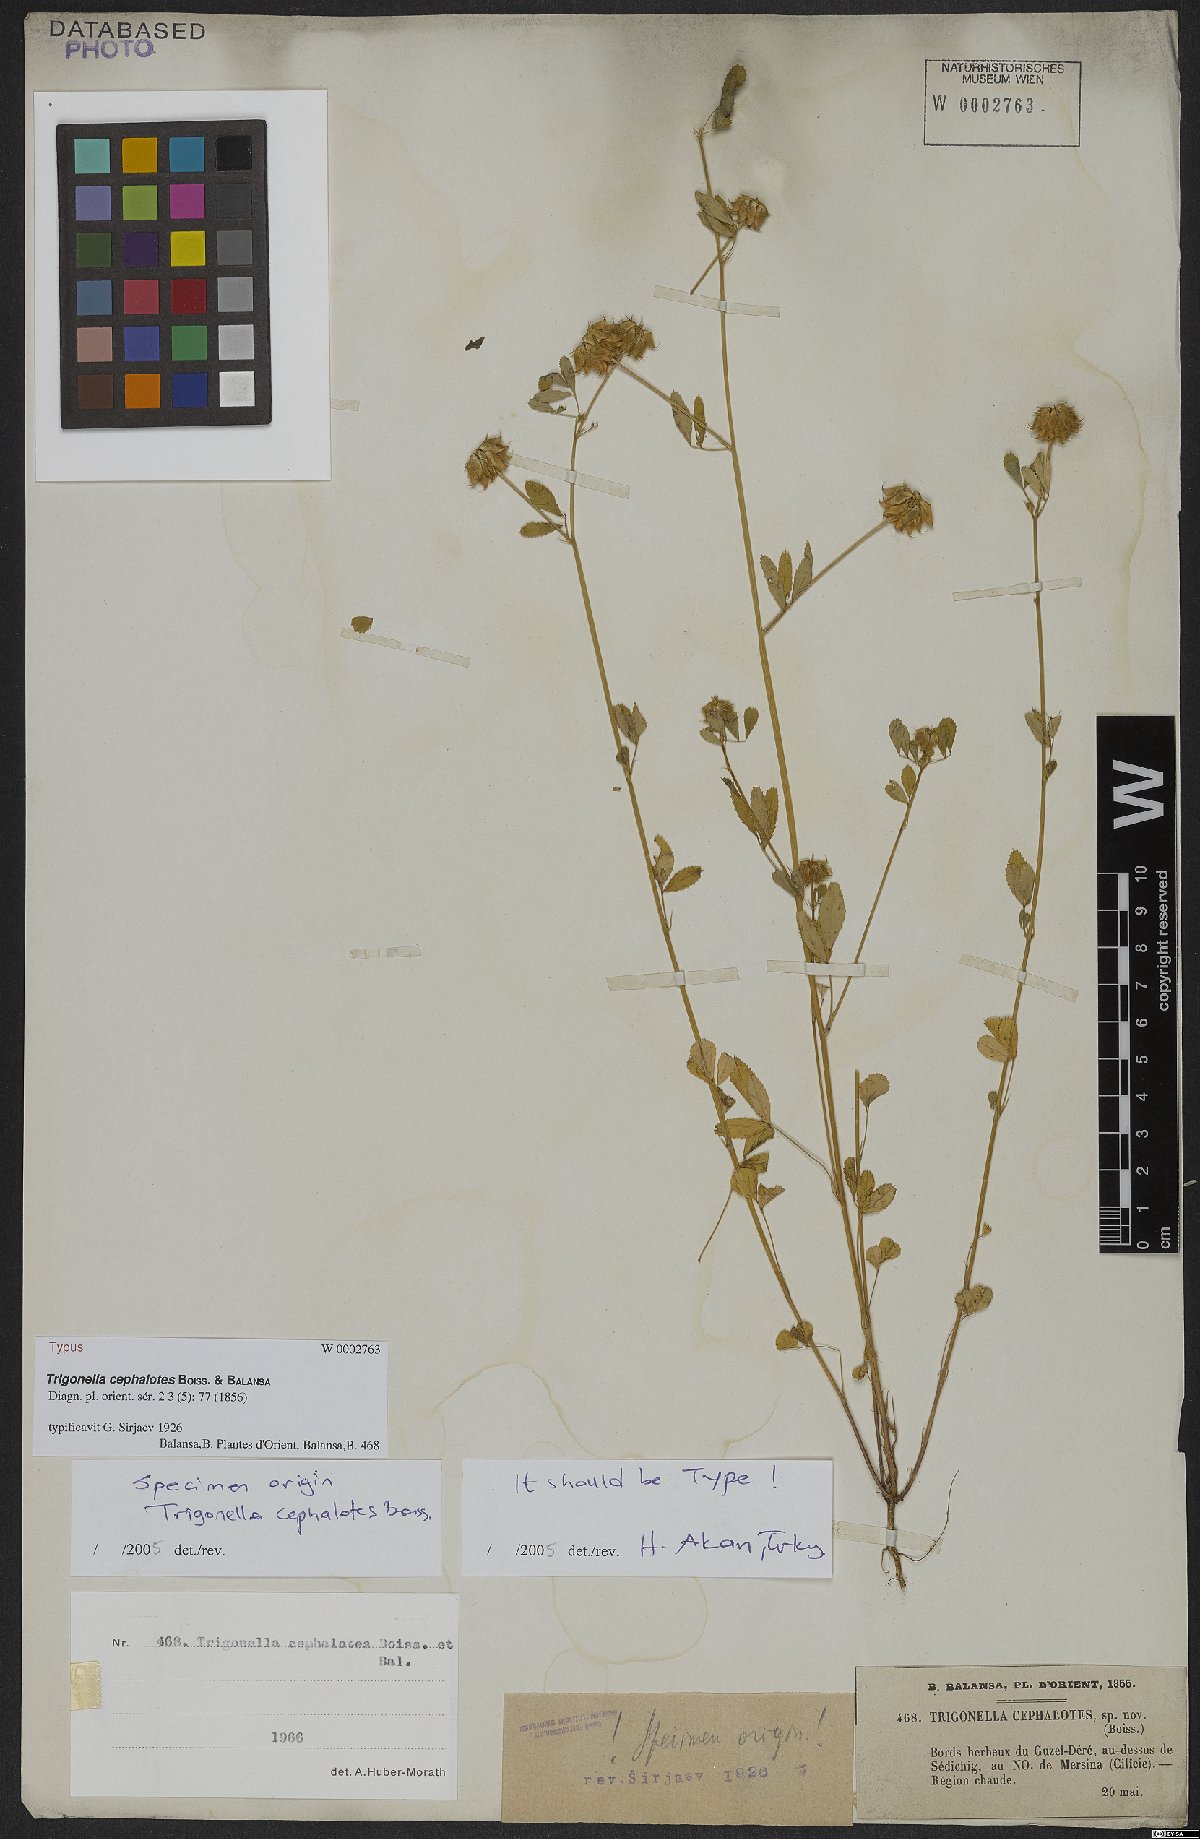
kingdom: Plantae
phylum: Tracheophyta
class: Magnoliopsida
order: Fabales
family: Fabaceae
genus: Trigonella
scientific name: Trigonella cephalotes
